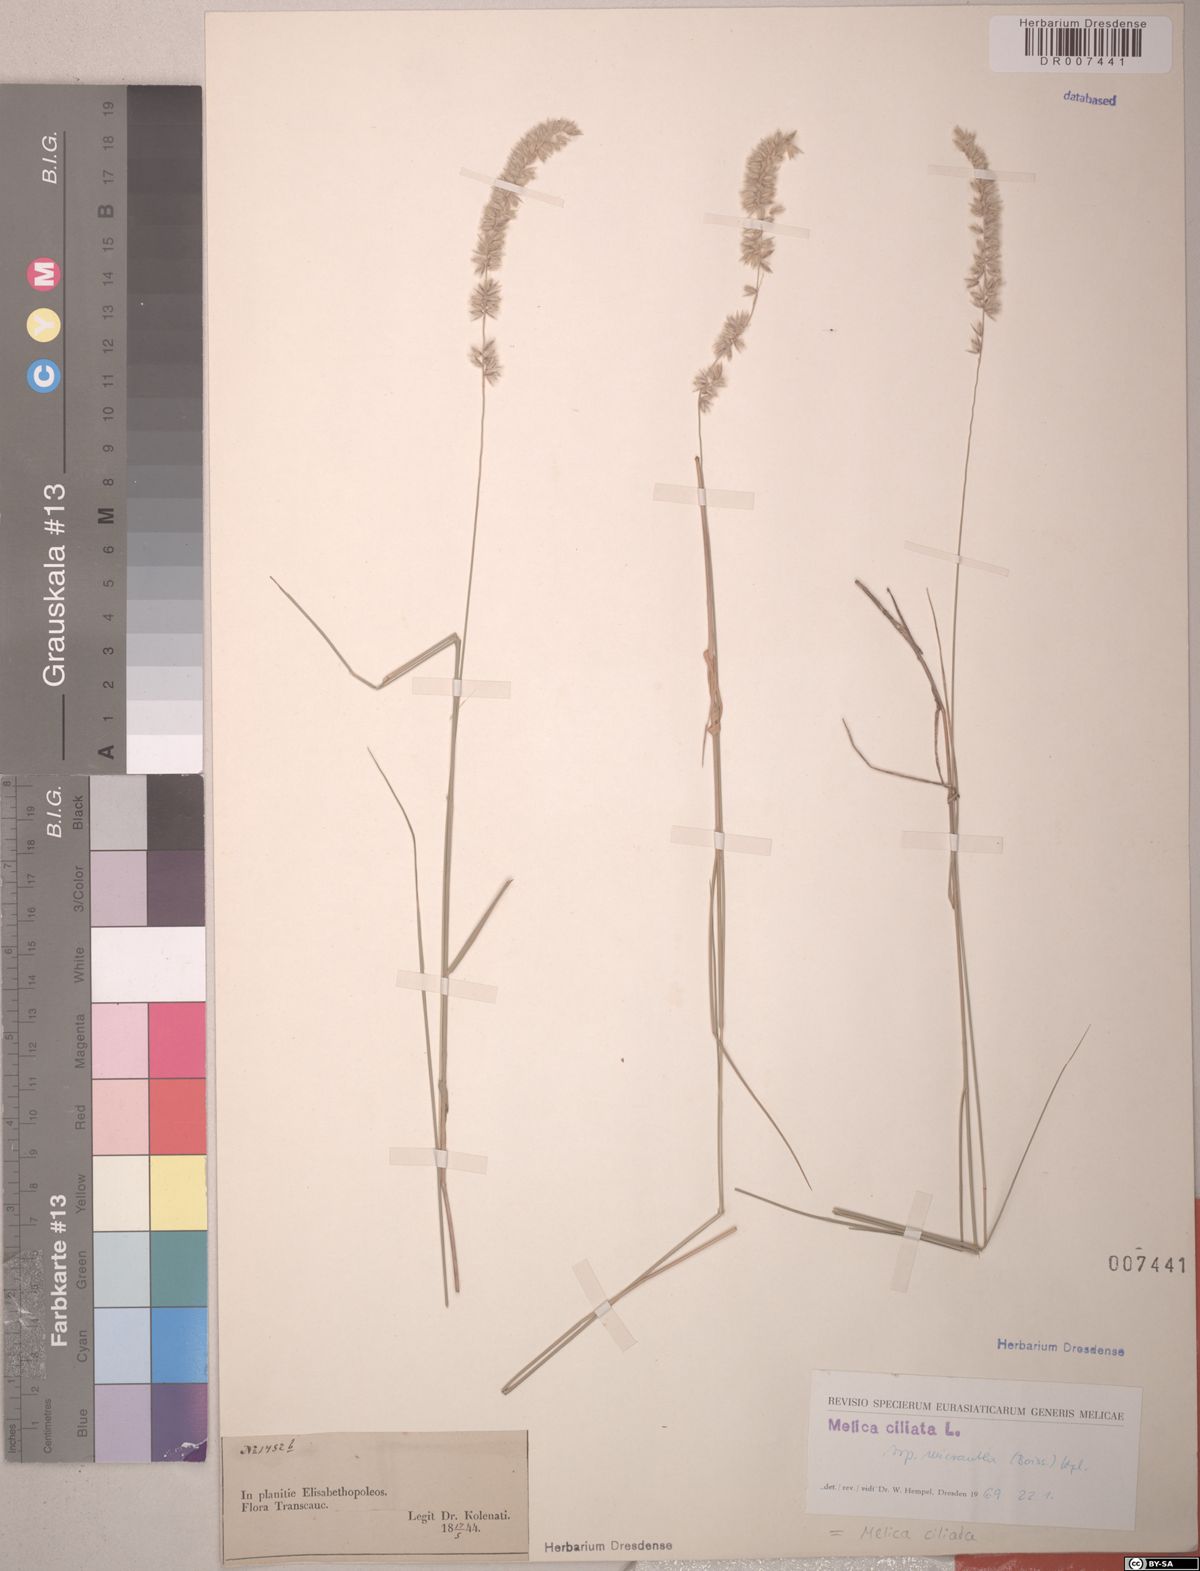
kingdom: Plantae
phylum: Tracheophyta
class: Liliopsida
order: Poales
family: Poaceae
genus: Melica
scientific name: Melica ciliata
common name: Hairy melicgrass
